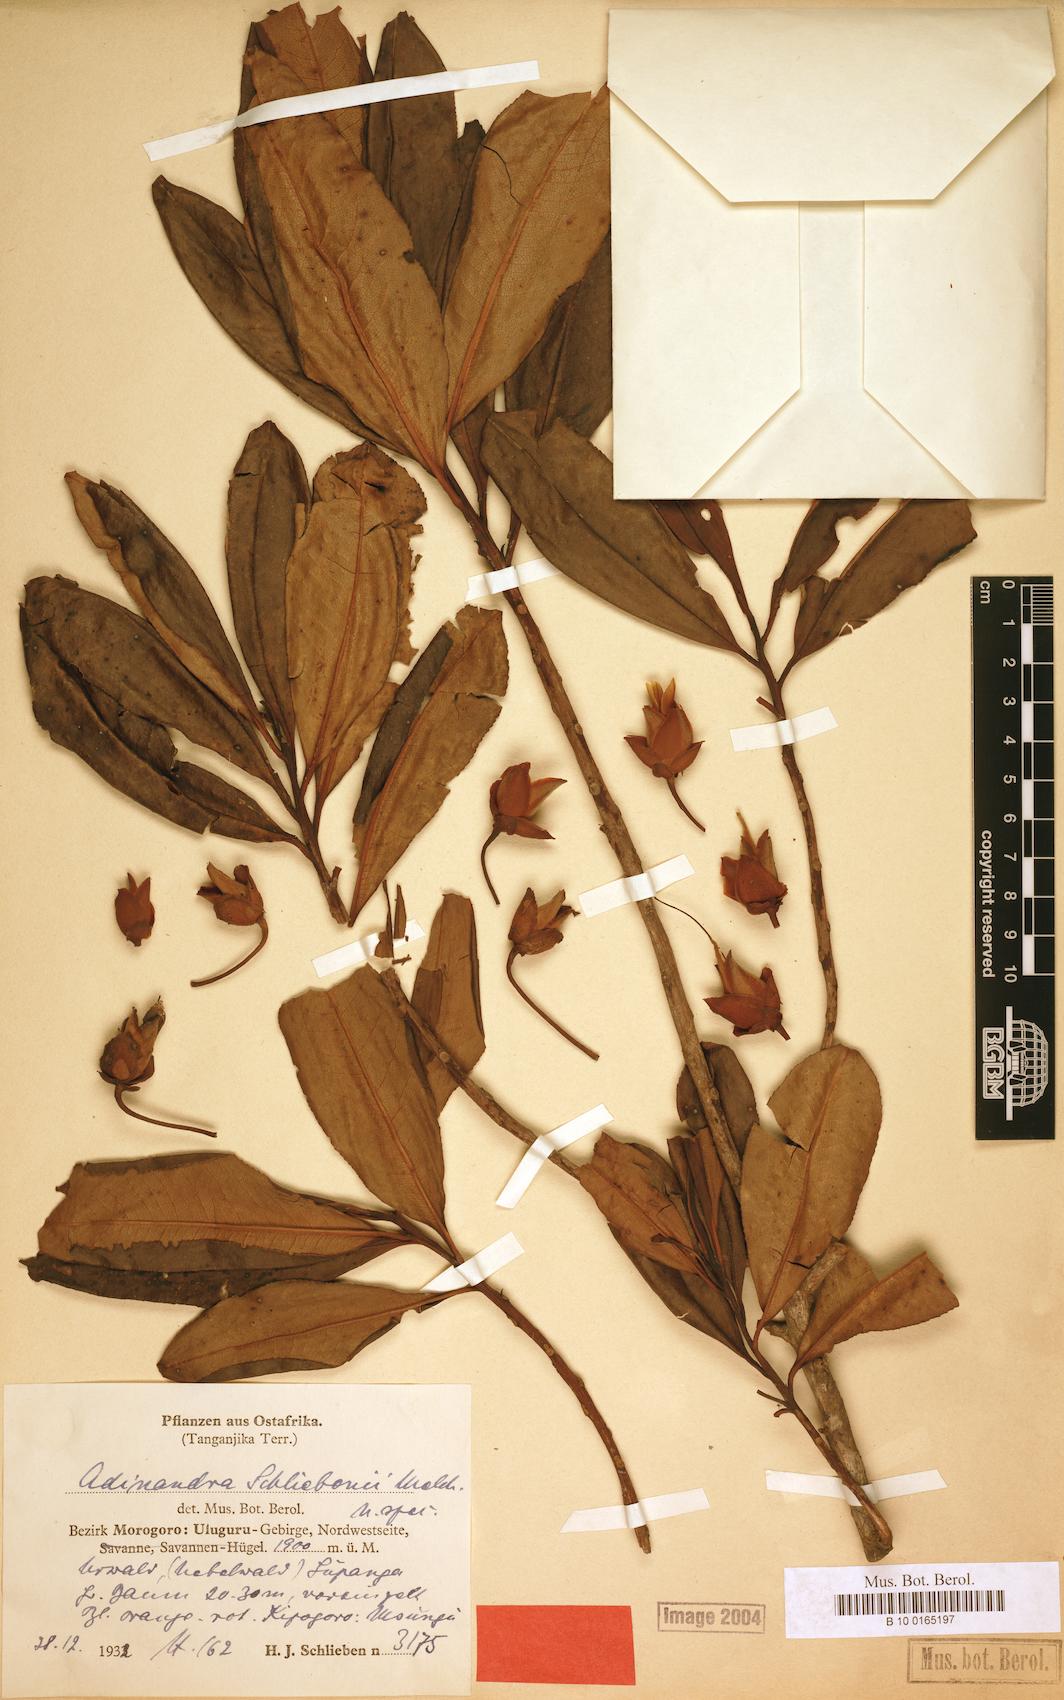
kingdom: Plantae
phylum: Tracheophyta
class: Magnoliopsida
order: Ericales
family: Pentaphylacaceae
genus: Balthasaria
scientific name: Balthasaria schliebenii
